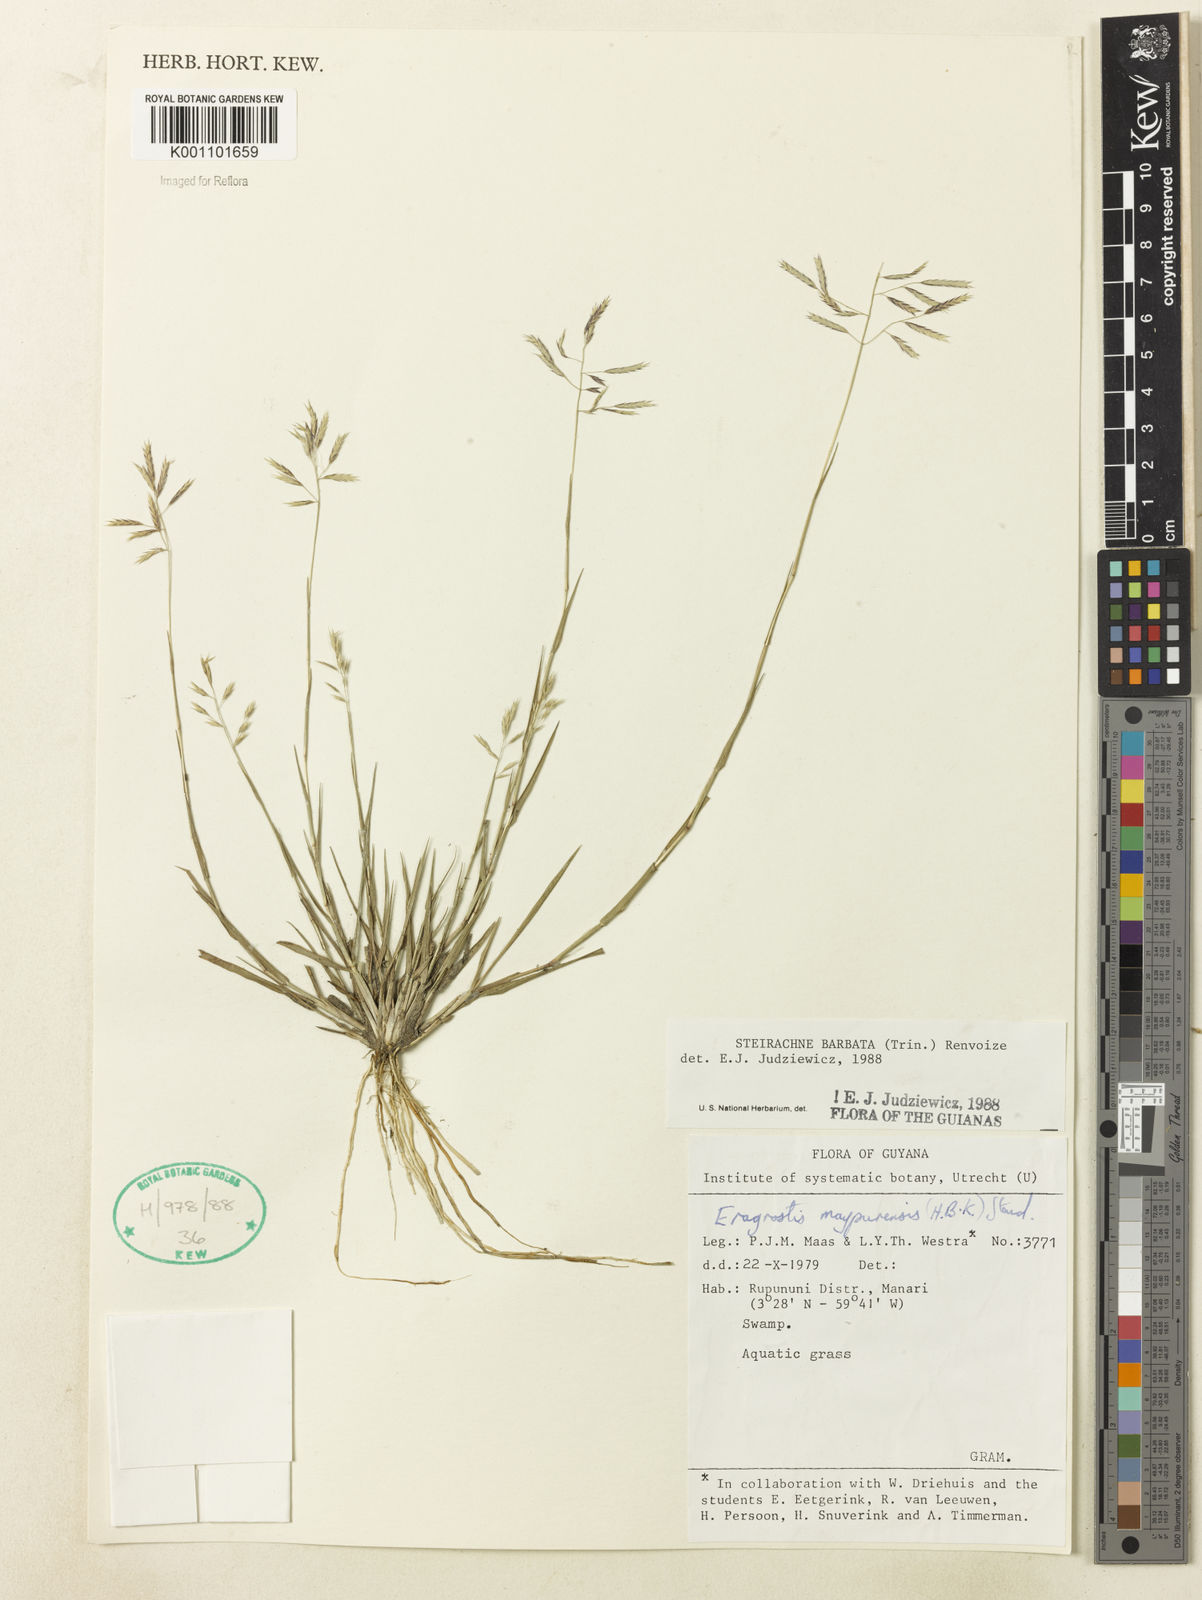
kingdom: Plantae
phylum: Tracheophyta
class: Liliopsida
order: Poales
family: Poaceae
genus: Steirachne
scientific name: Steirachne barbata
